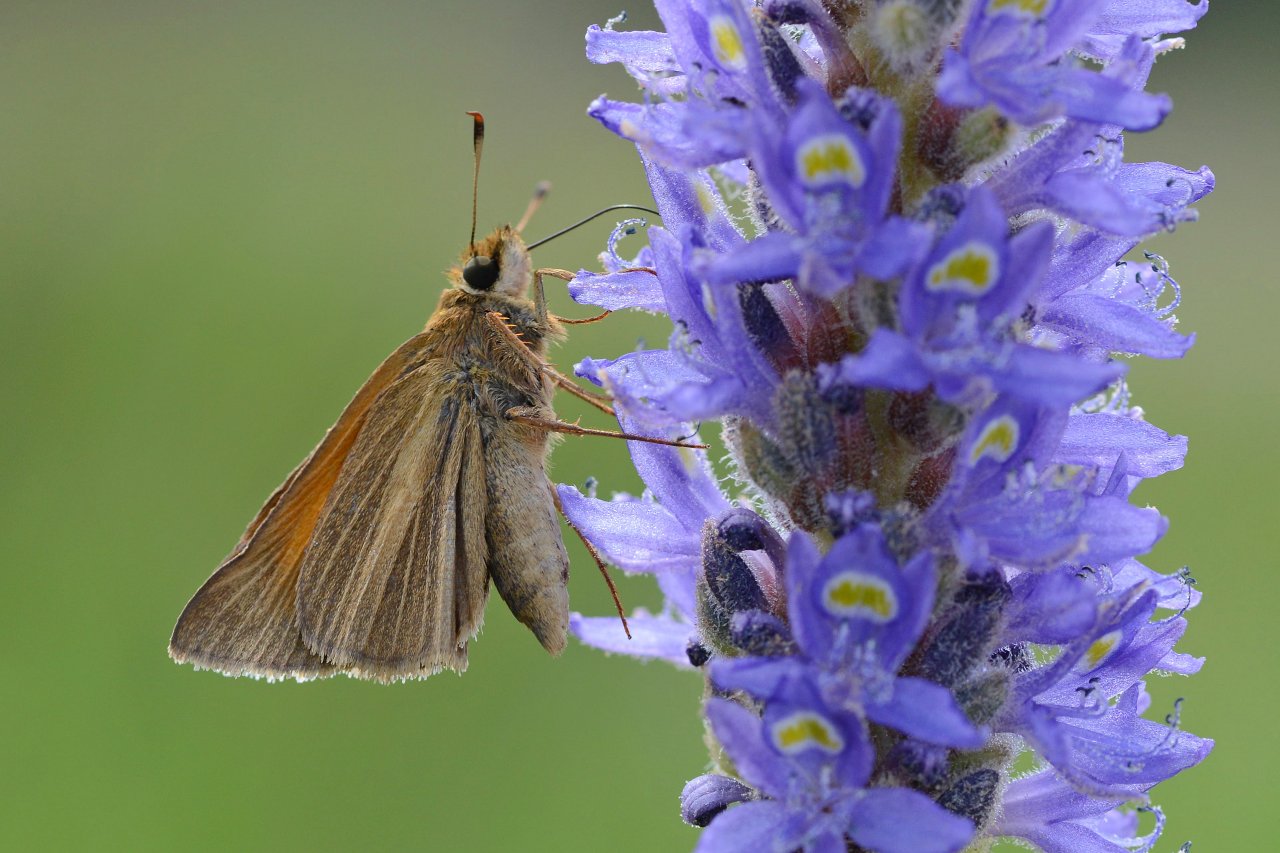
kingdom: Animalia
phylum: Arthropoda
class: Insecta
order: Lepidoptera
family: Hesperiidae
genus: Poanes
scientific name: Poanes aaroni
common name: Aaron's Skipper
